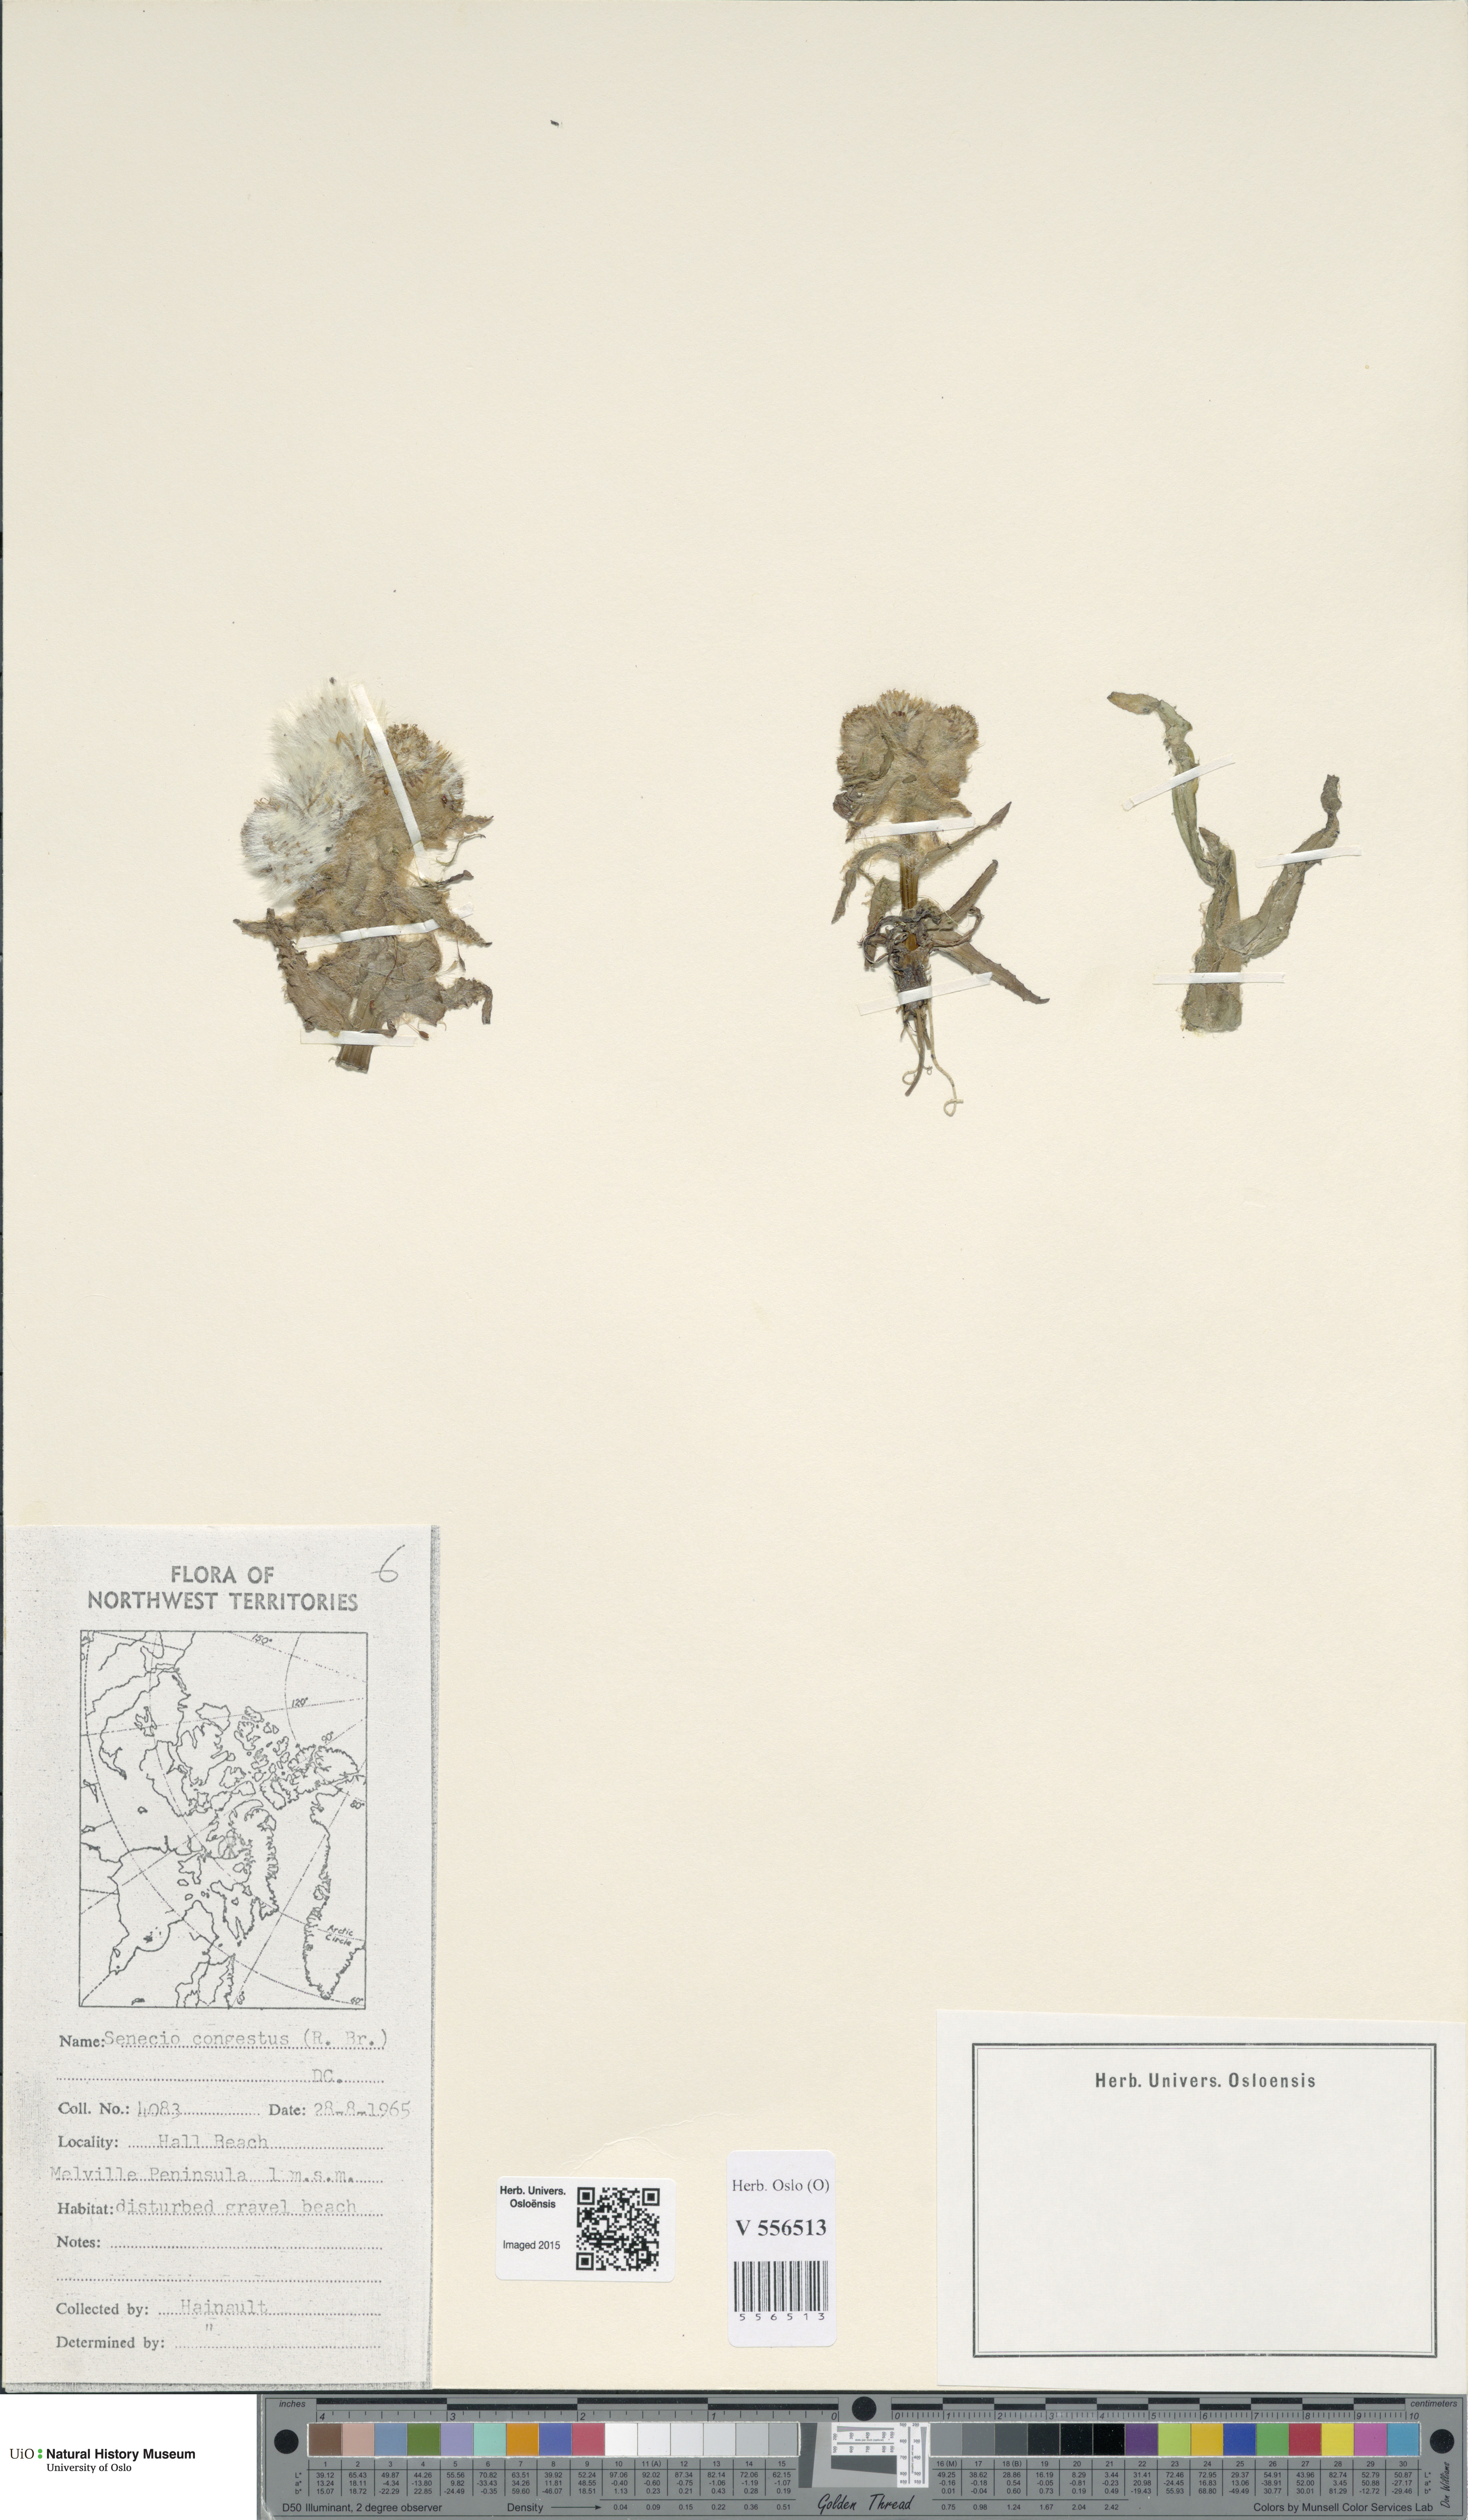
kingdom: Plantae
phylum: Tracheophyta
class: Magnoliopsida
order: Asterales
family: Asteraceae
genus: Tephroseris
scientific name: Tephroseris palustris
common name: Marsh fleawort
